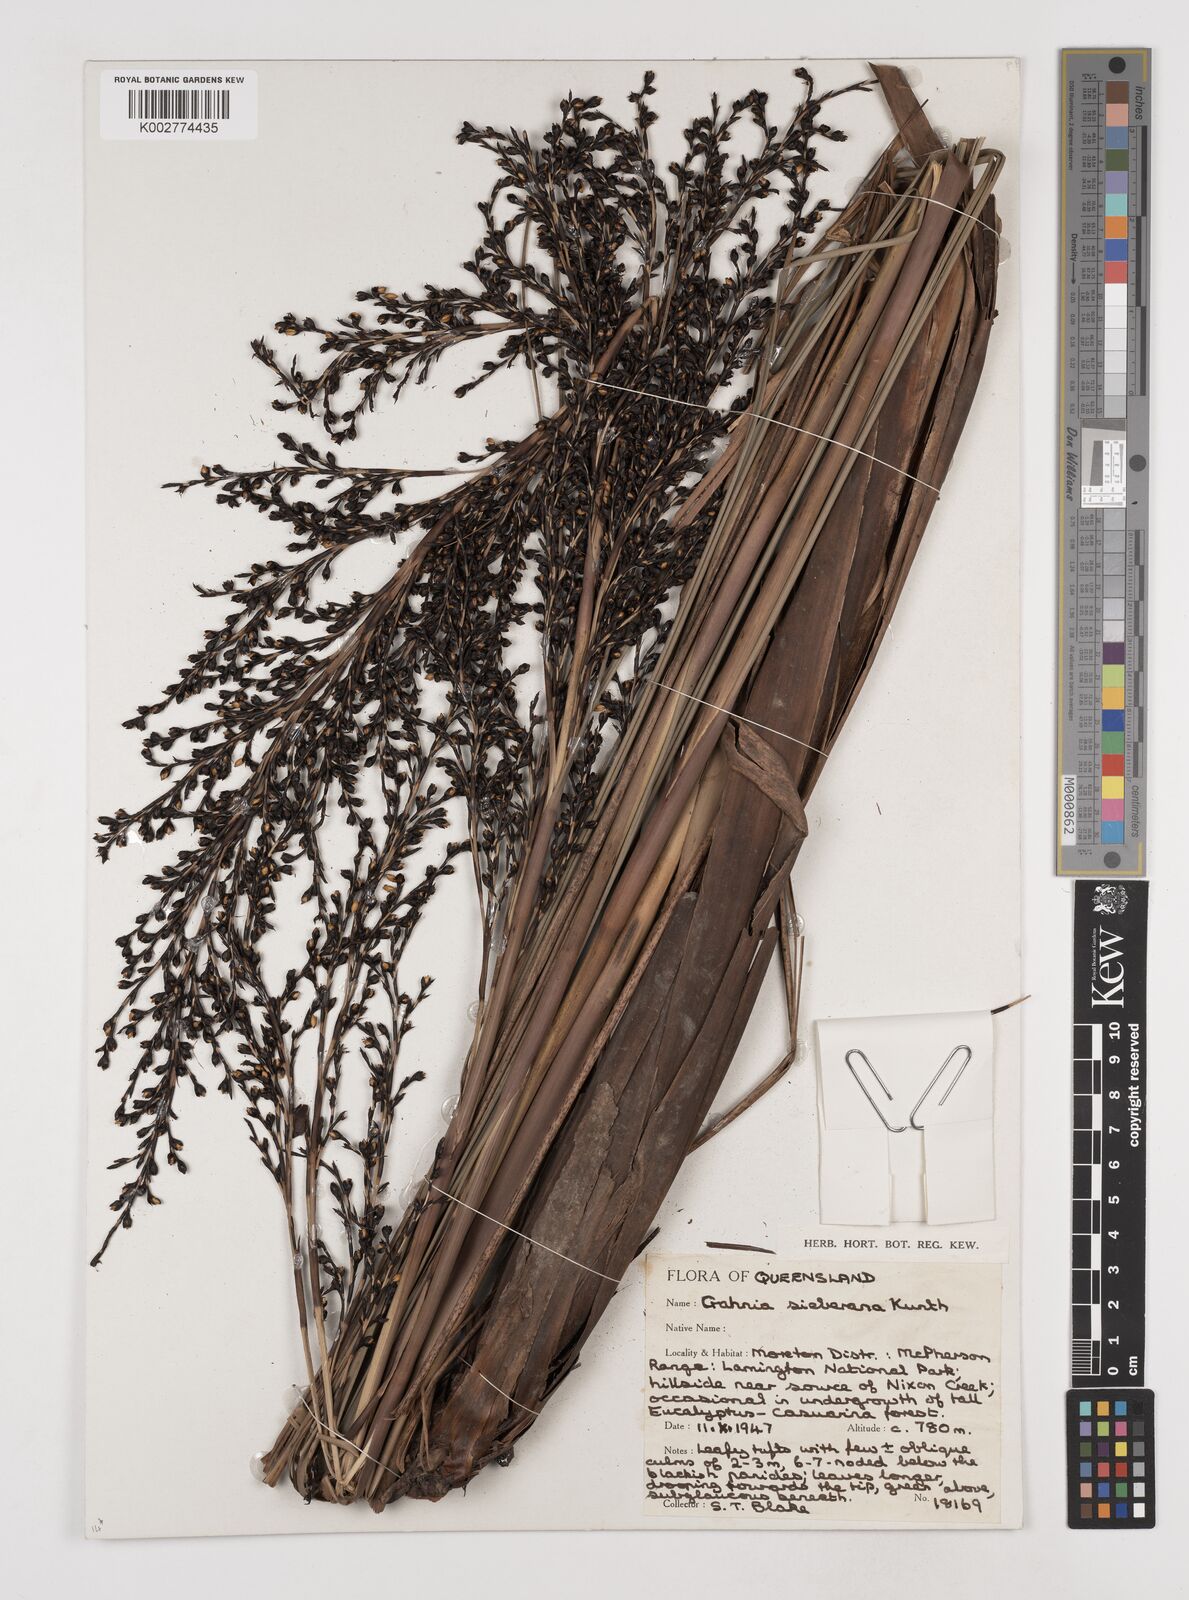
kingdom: Plantae
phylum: Tracheophyta
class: Liliopsida
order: Poales
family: Cyperaceae
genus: Gahnia
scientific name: Gahnia sieberiana
